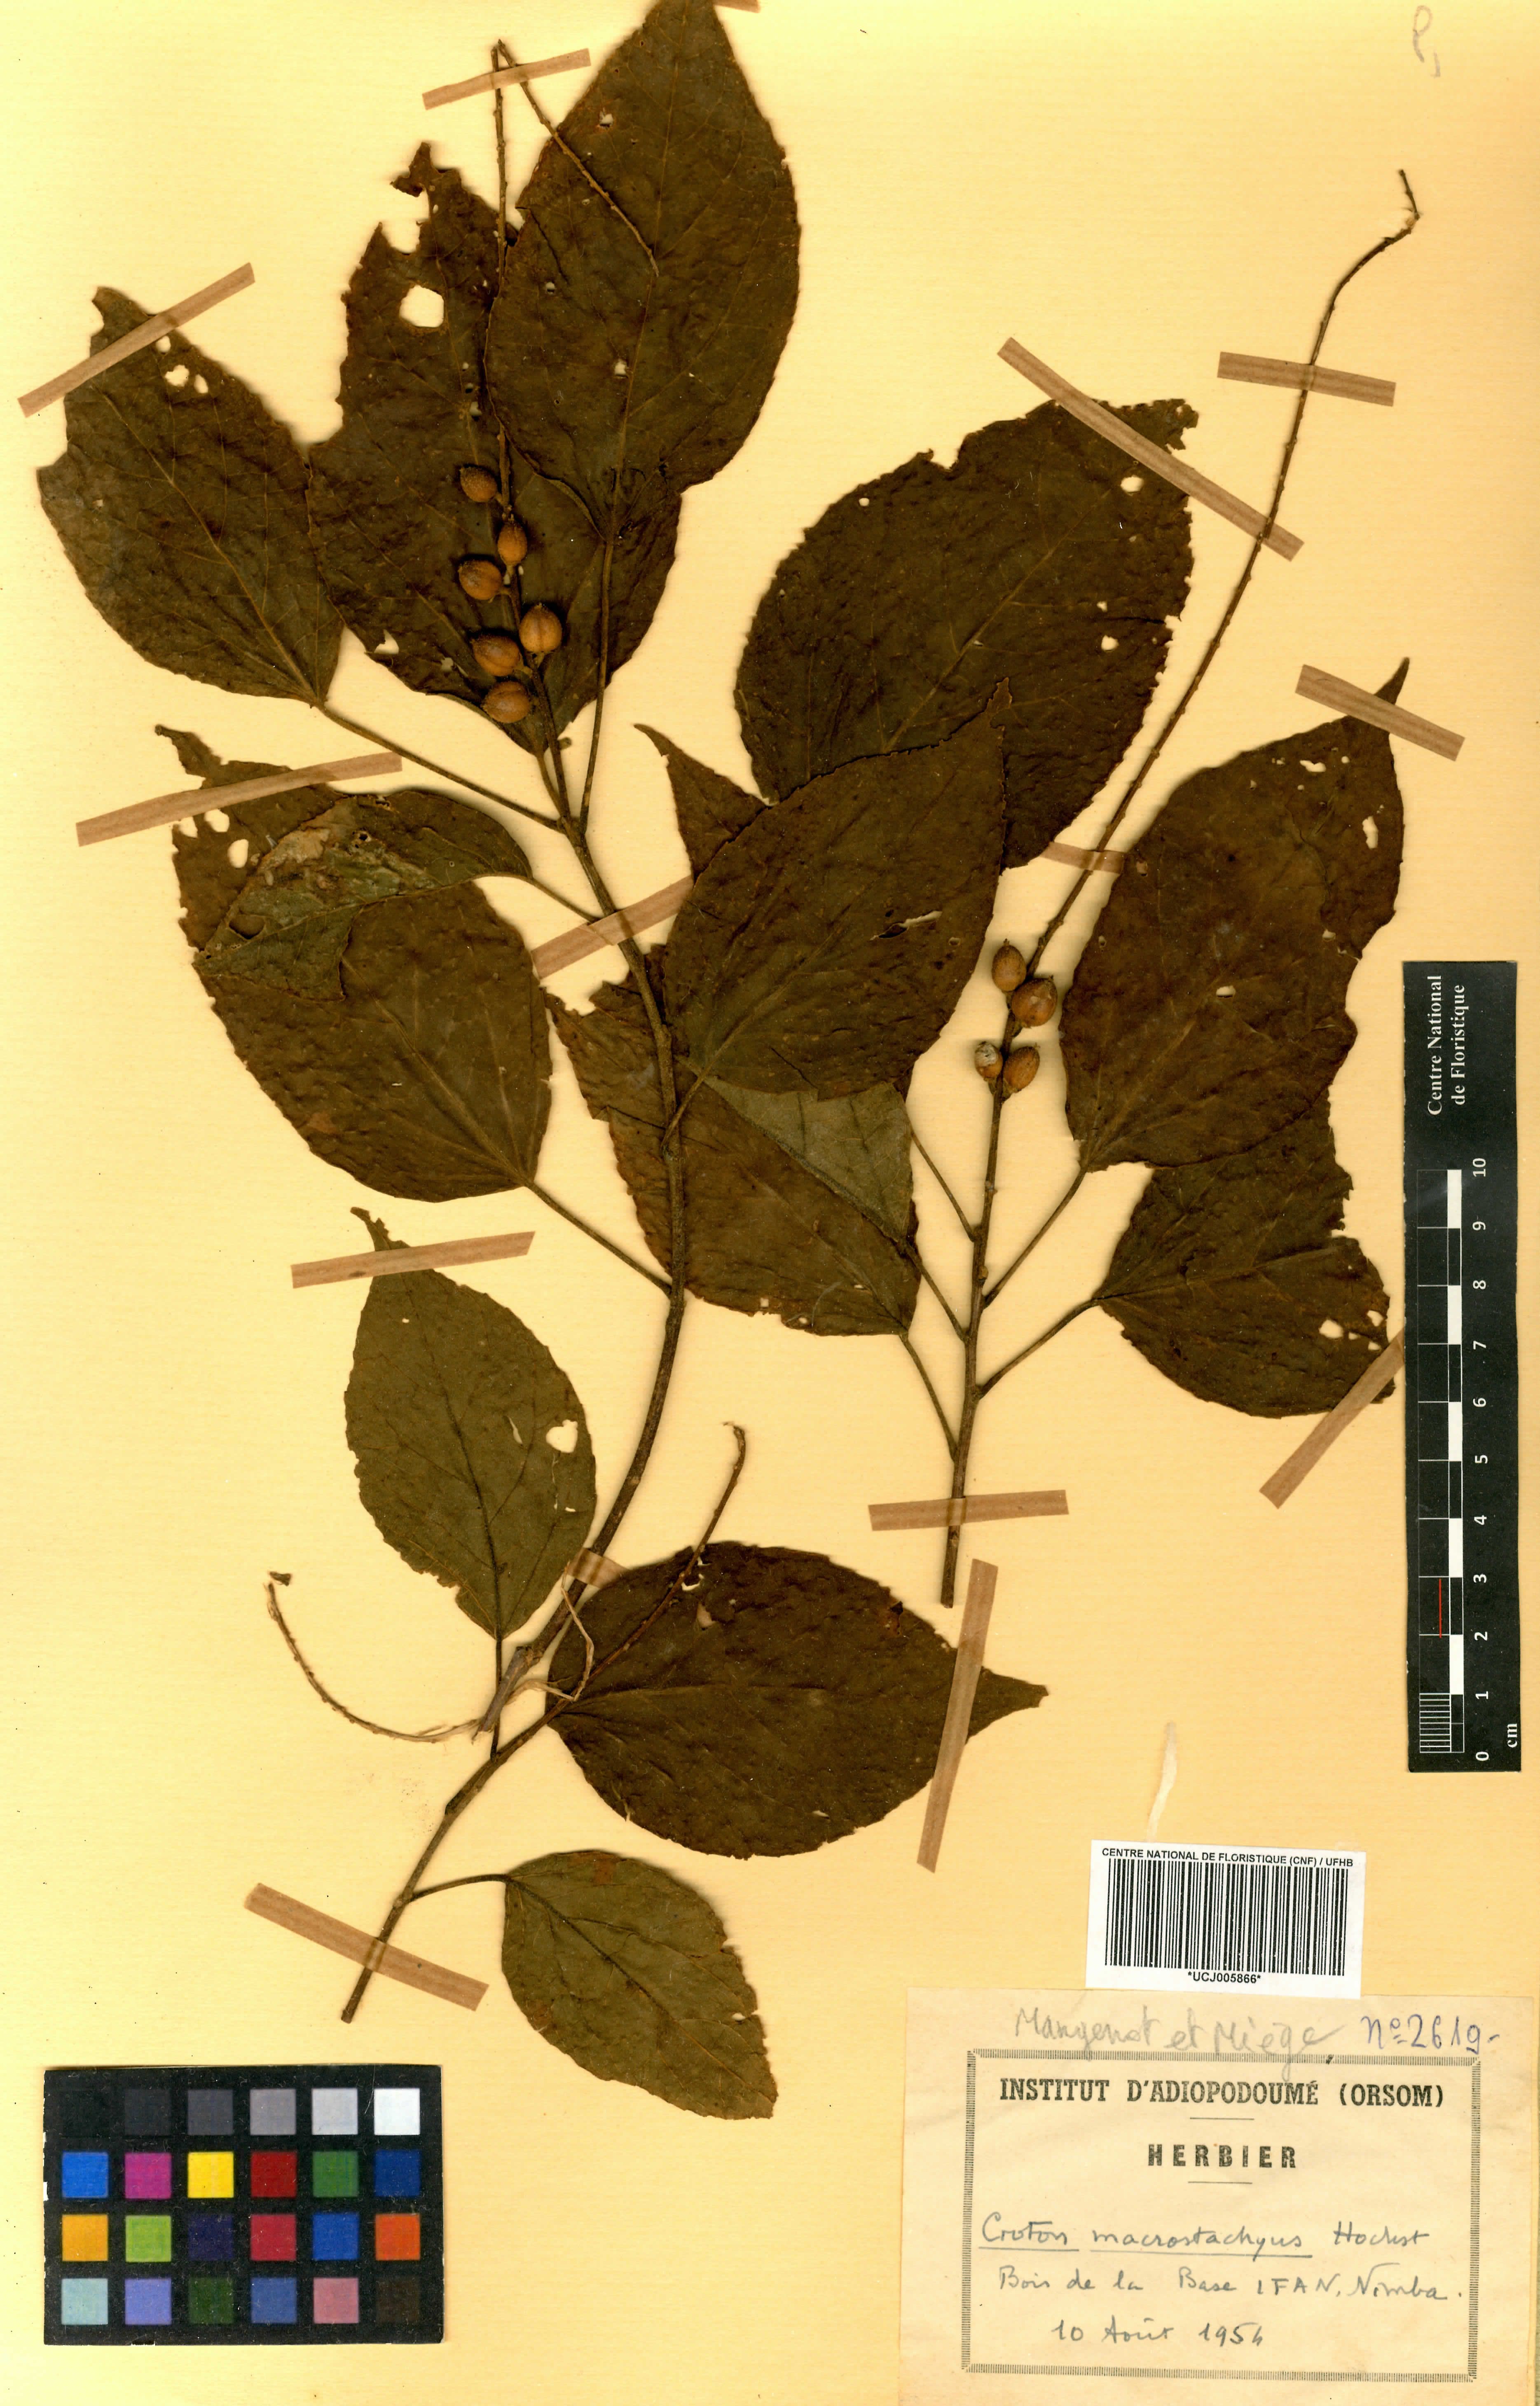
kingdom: Plantae
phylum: Tracheophyta
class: Magnoliopsida
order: Malpighiales
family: Euphorbiaceae
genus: Croton
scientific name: Croton macrostachyus
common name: Mutundu
